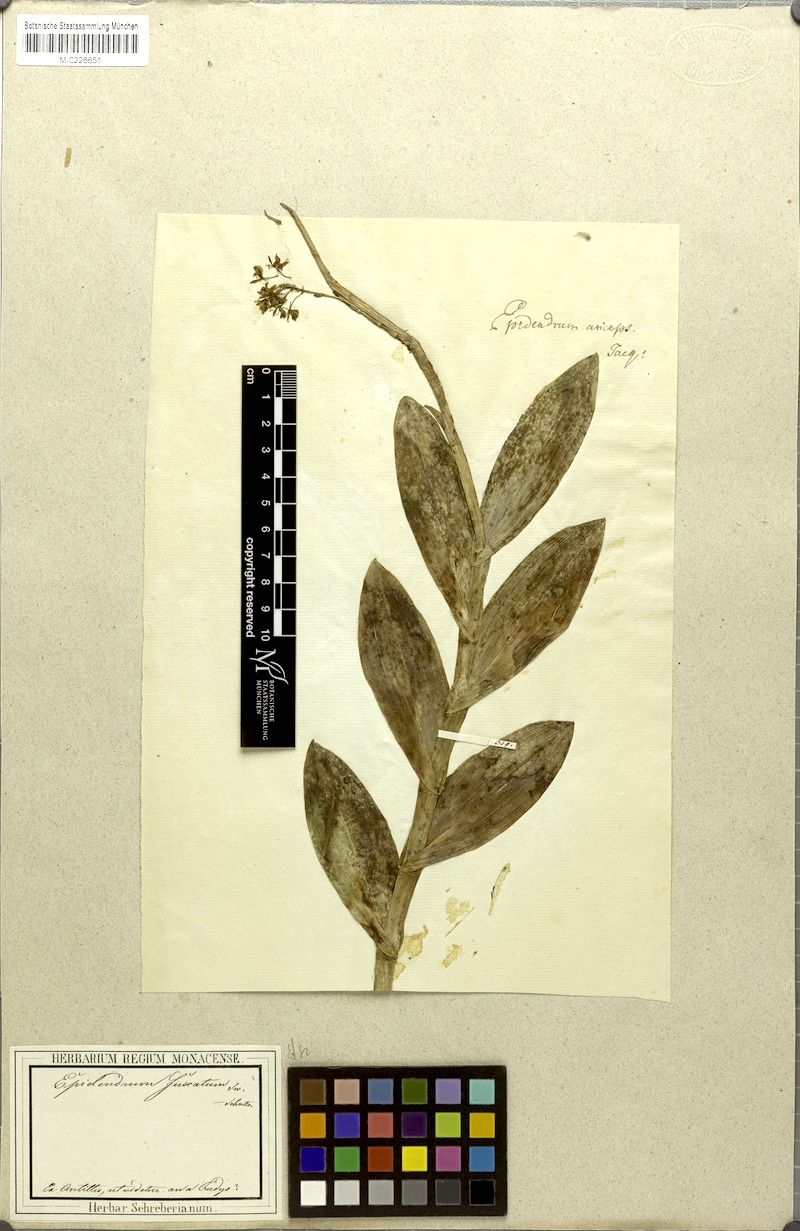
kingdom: Plantae
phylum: Tracheophyta
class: Liliopsida
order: Asparagales
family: Orchidaceae
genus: Epidendrum
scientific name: Epidendrum anceps
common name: Brown-flower butterfly orchid
